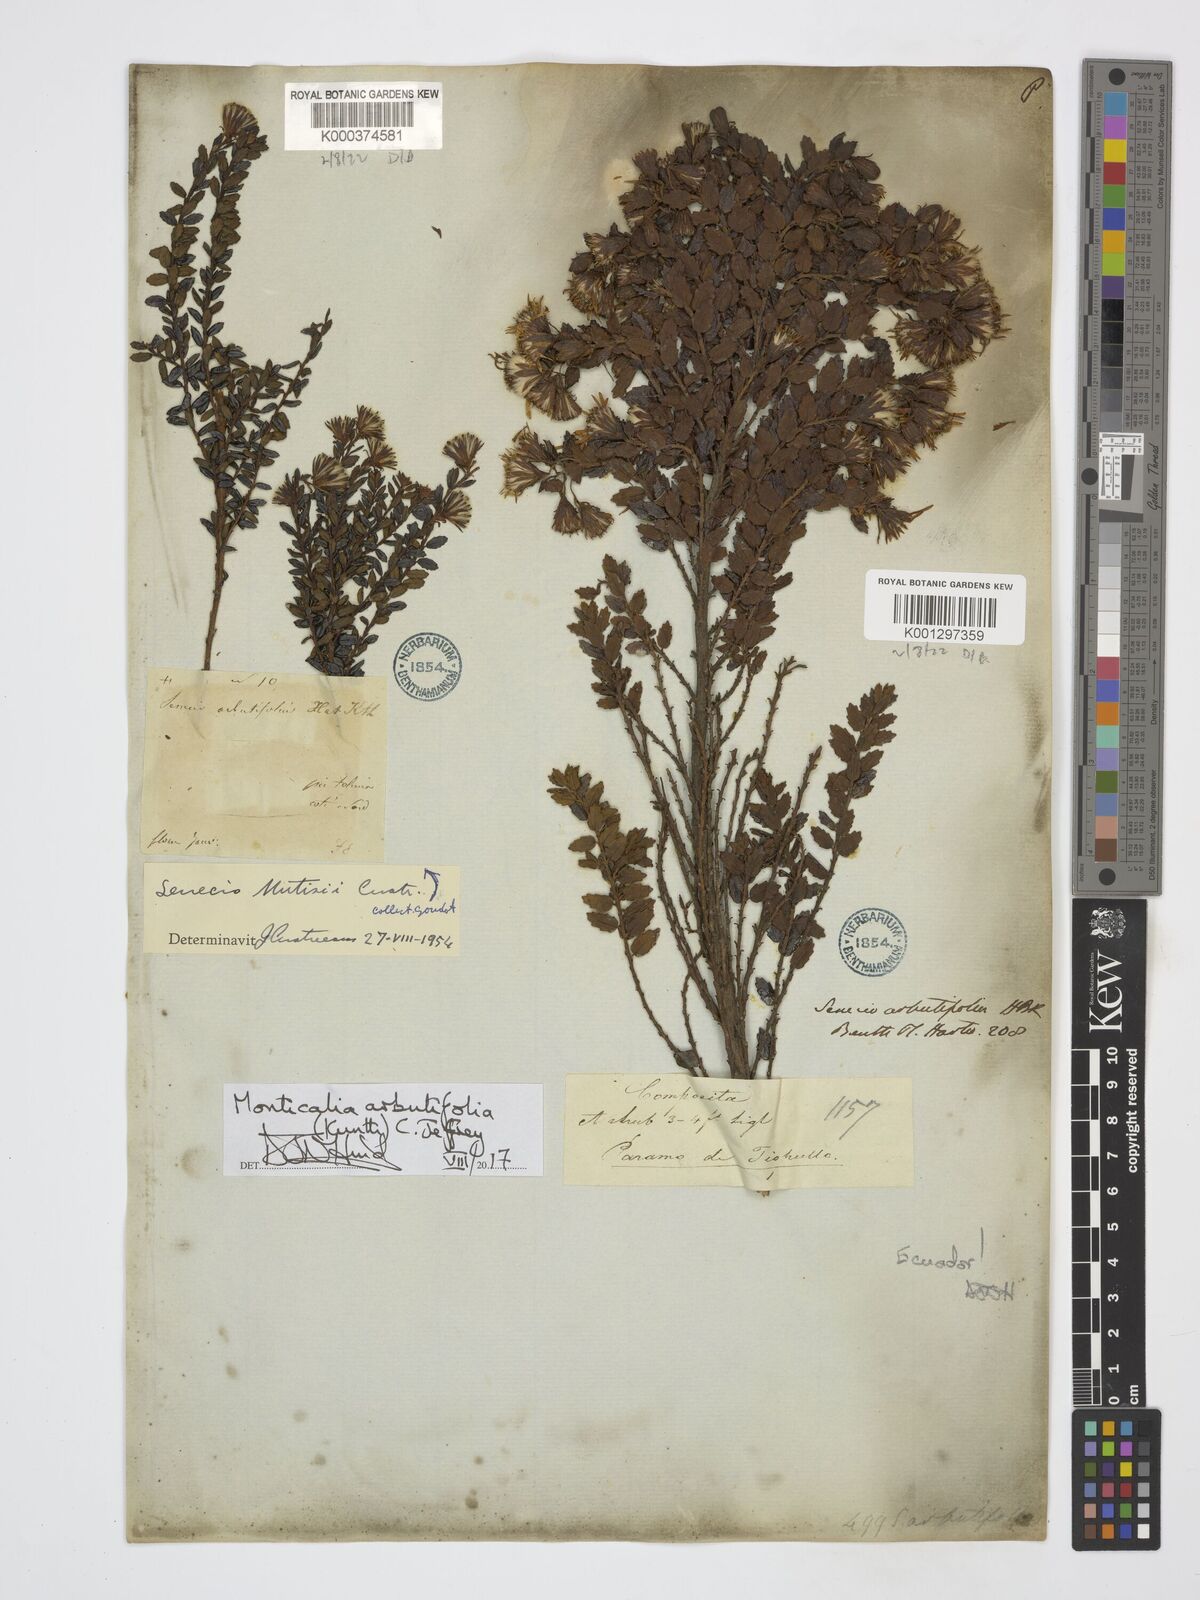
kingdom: Plantae
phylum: Tracheophyta
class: Magnoliopsida
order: Asterales
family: Asteraceae
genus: Monticalia
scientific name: Monticalia arbutifolia
